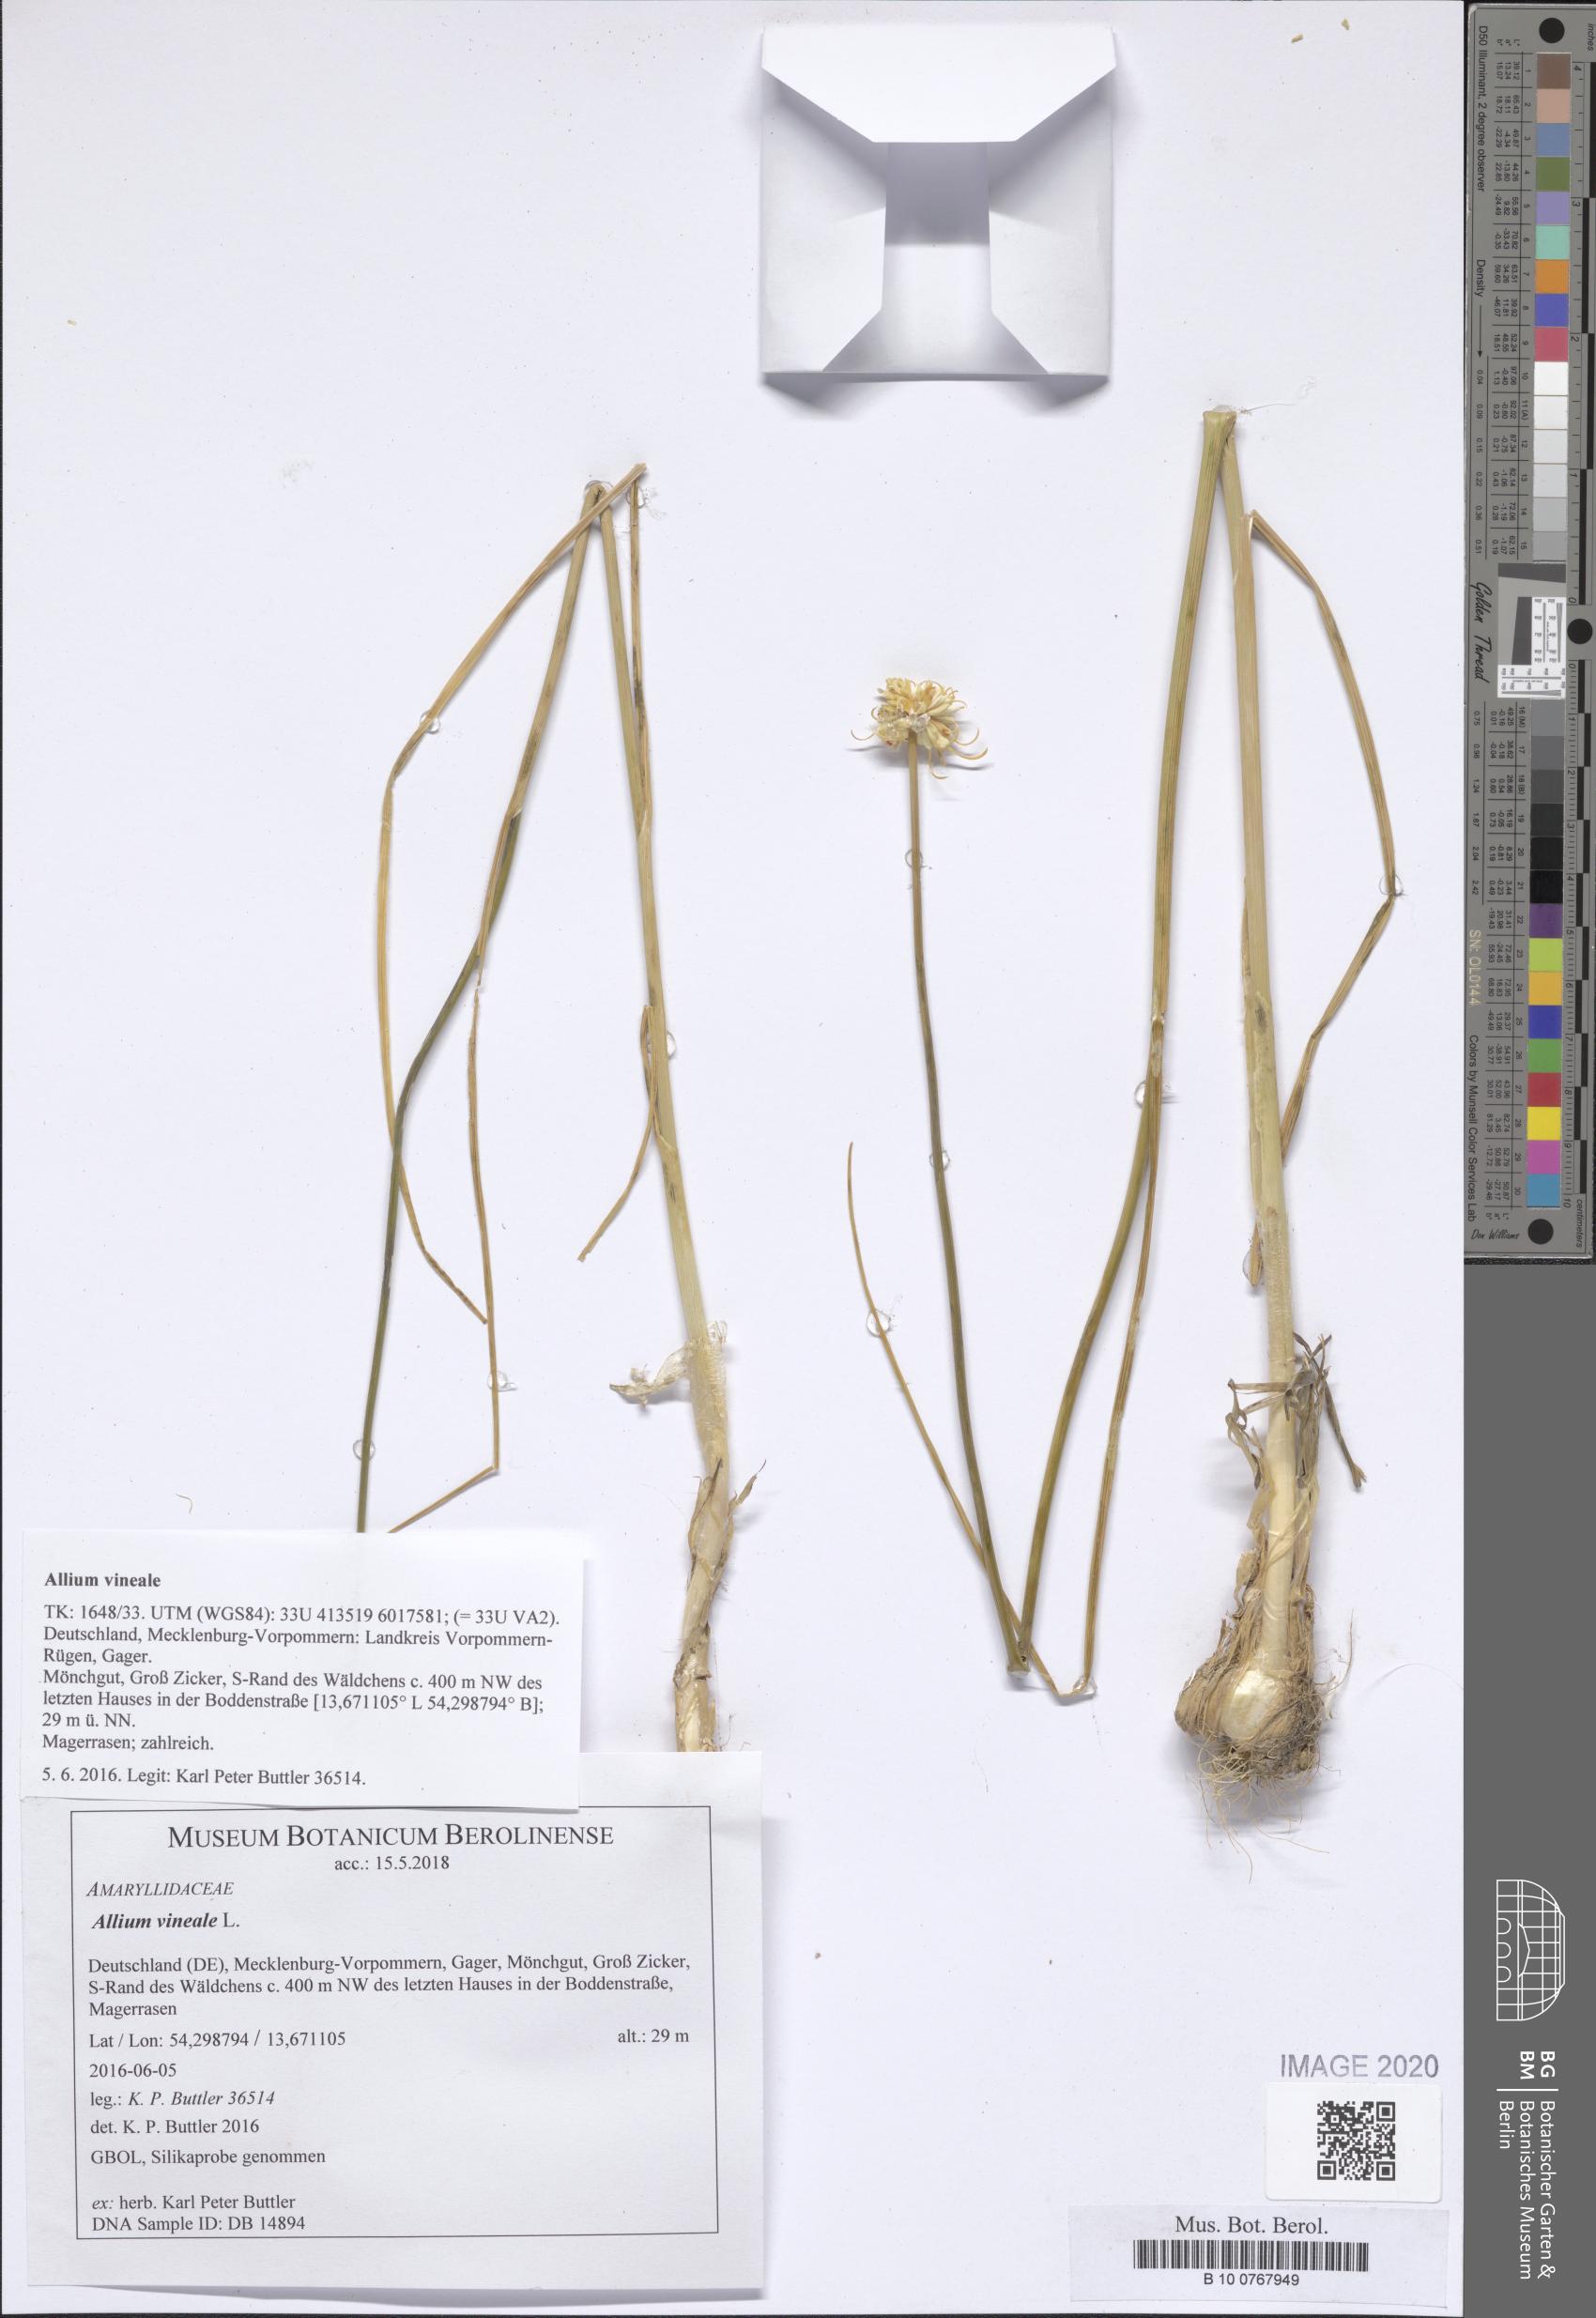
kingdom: Plantae
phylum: Tracheophyta
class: Liliopsida
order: Asparagales
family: Amaryllidaceae
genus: Allium
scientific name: Allium vineale
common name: Crow garlic
